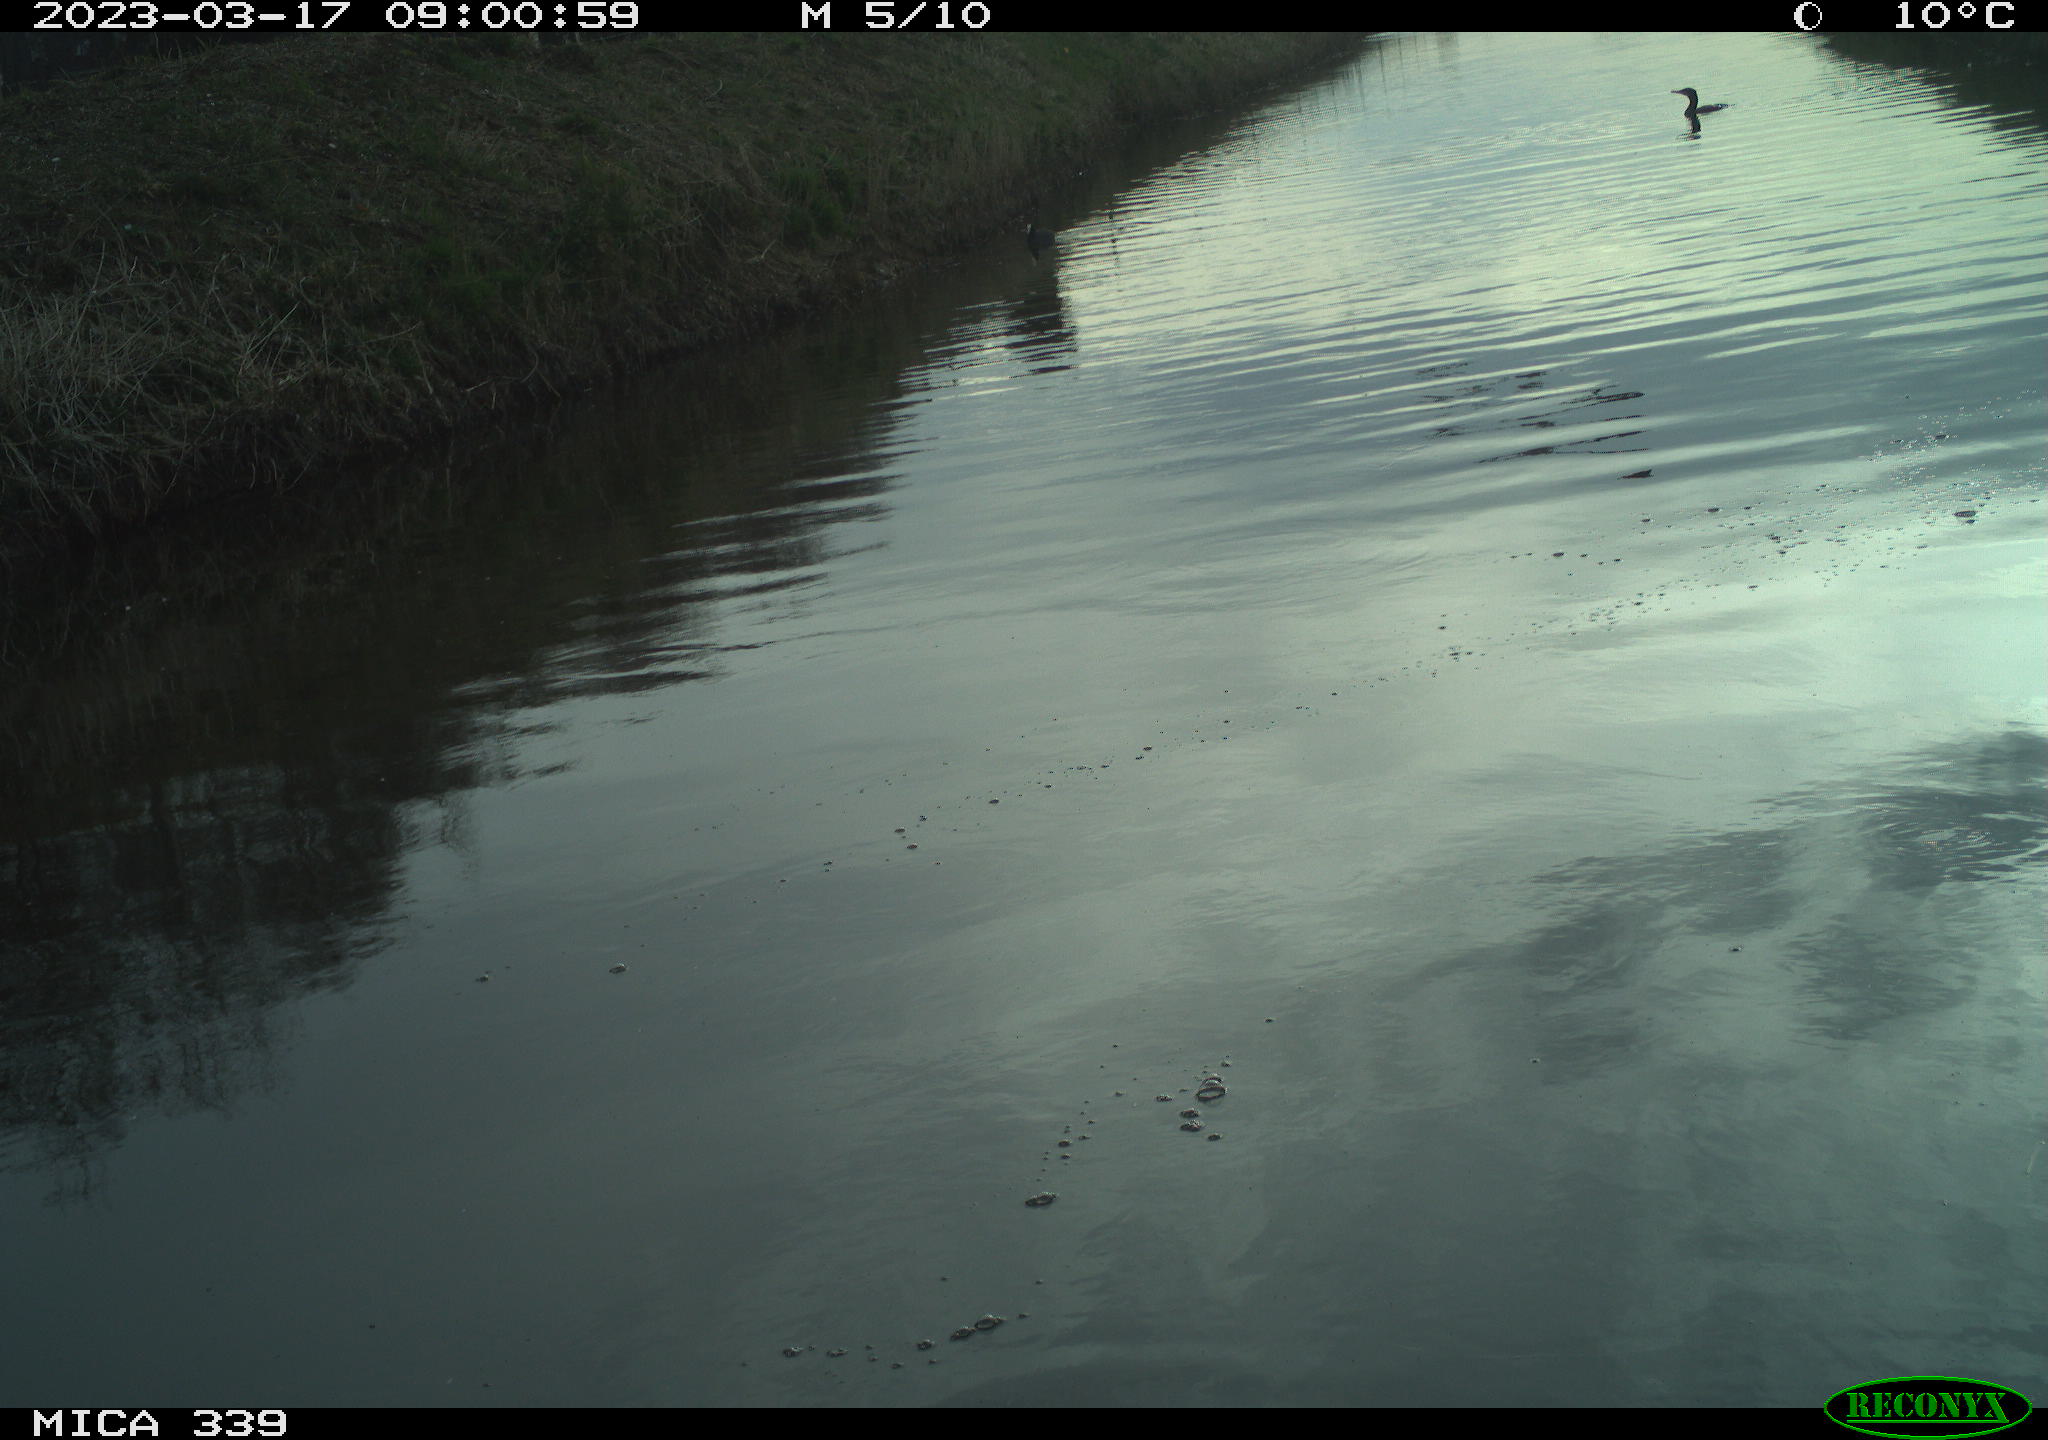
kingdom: Animalia
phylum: Chordata
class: Aves
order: Suliformes
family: Phalacrocoracidae
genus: Phalacrocorax
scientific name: Phalacrocorax carbo
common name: Great cormorant
